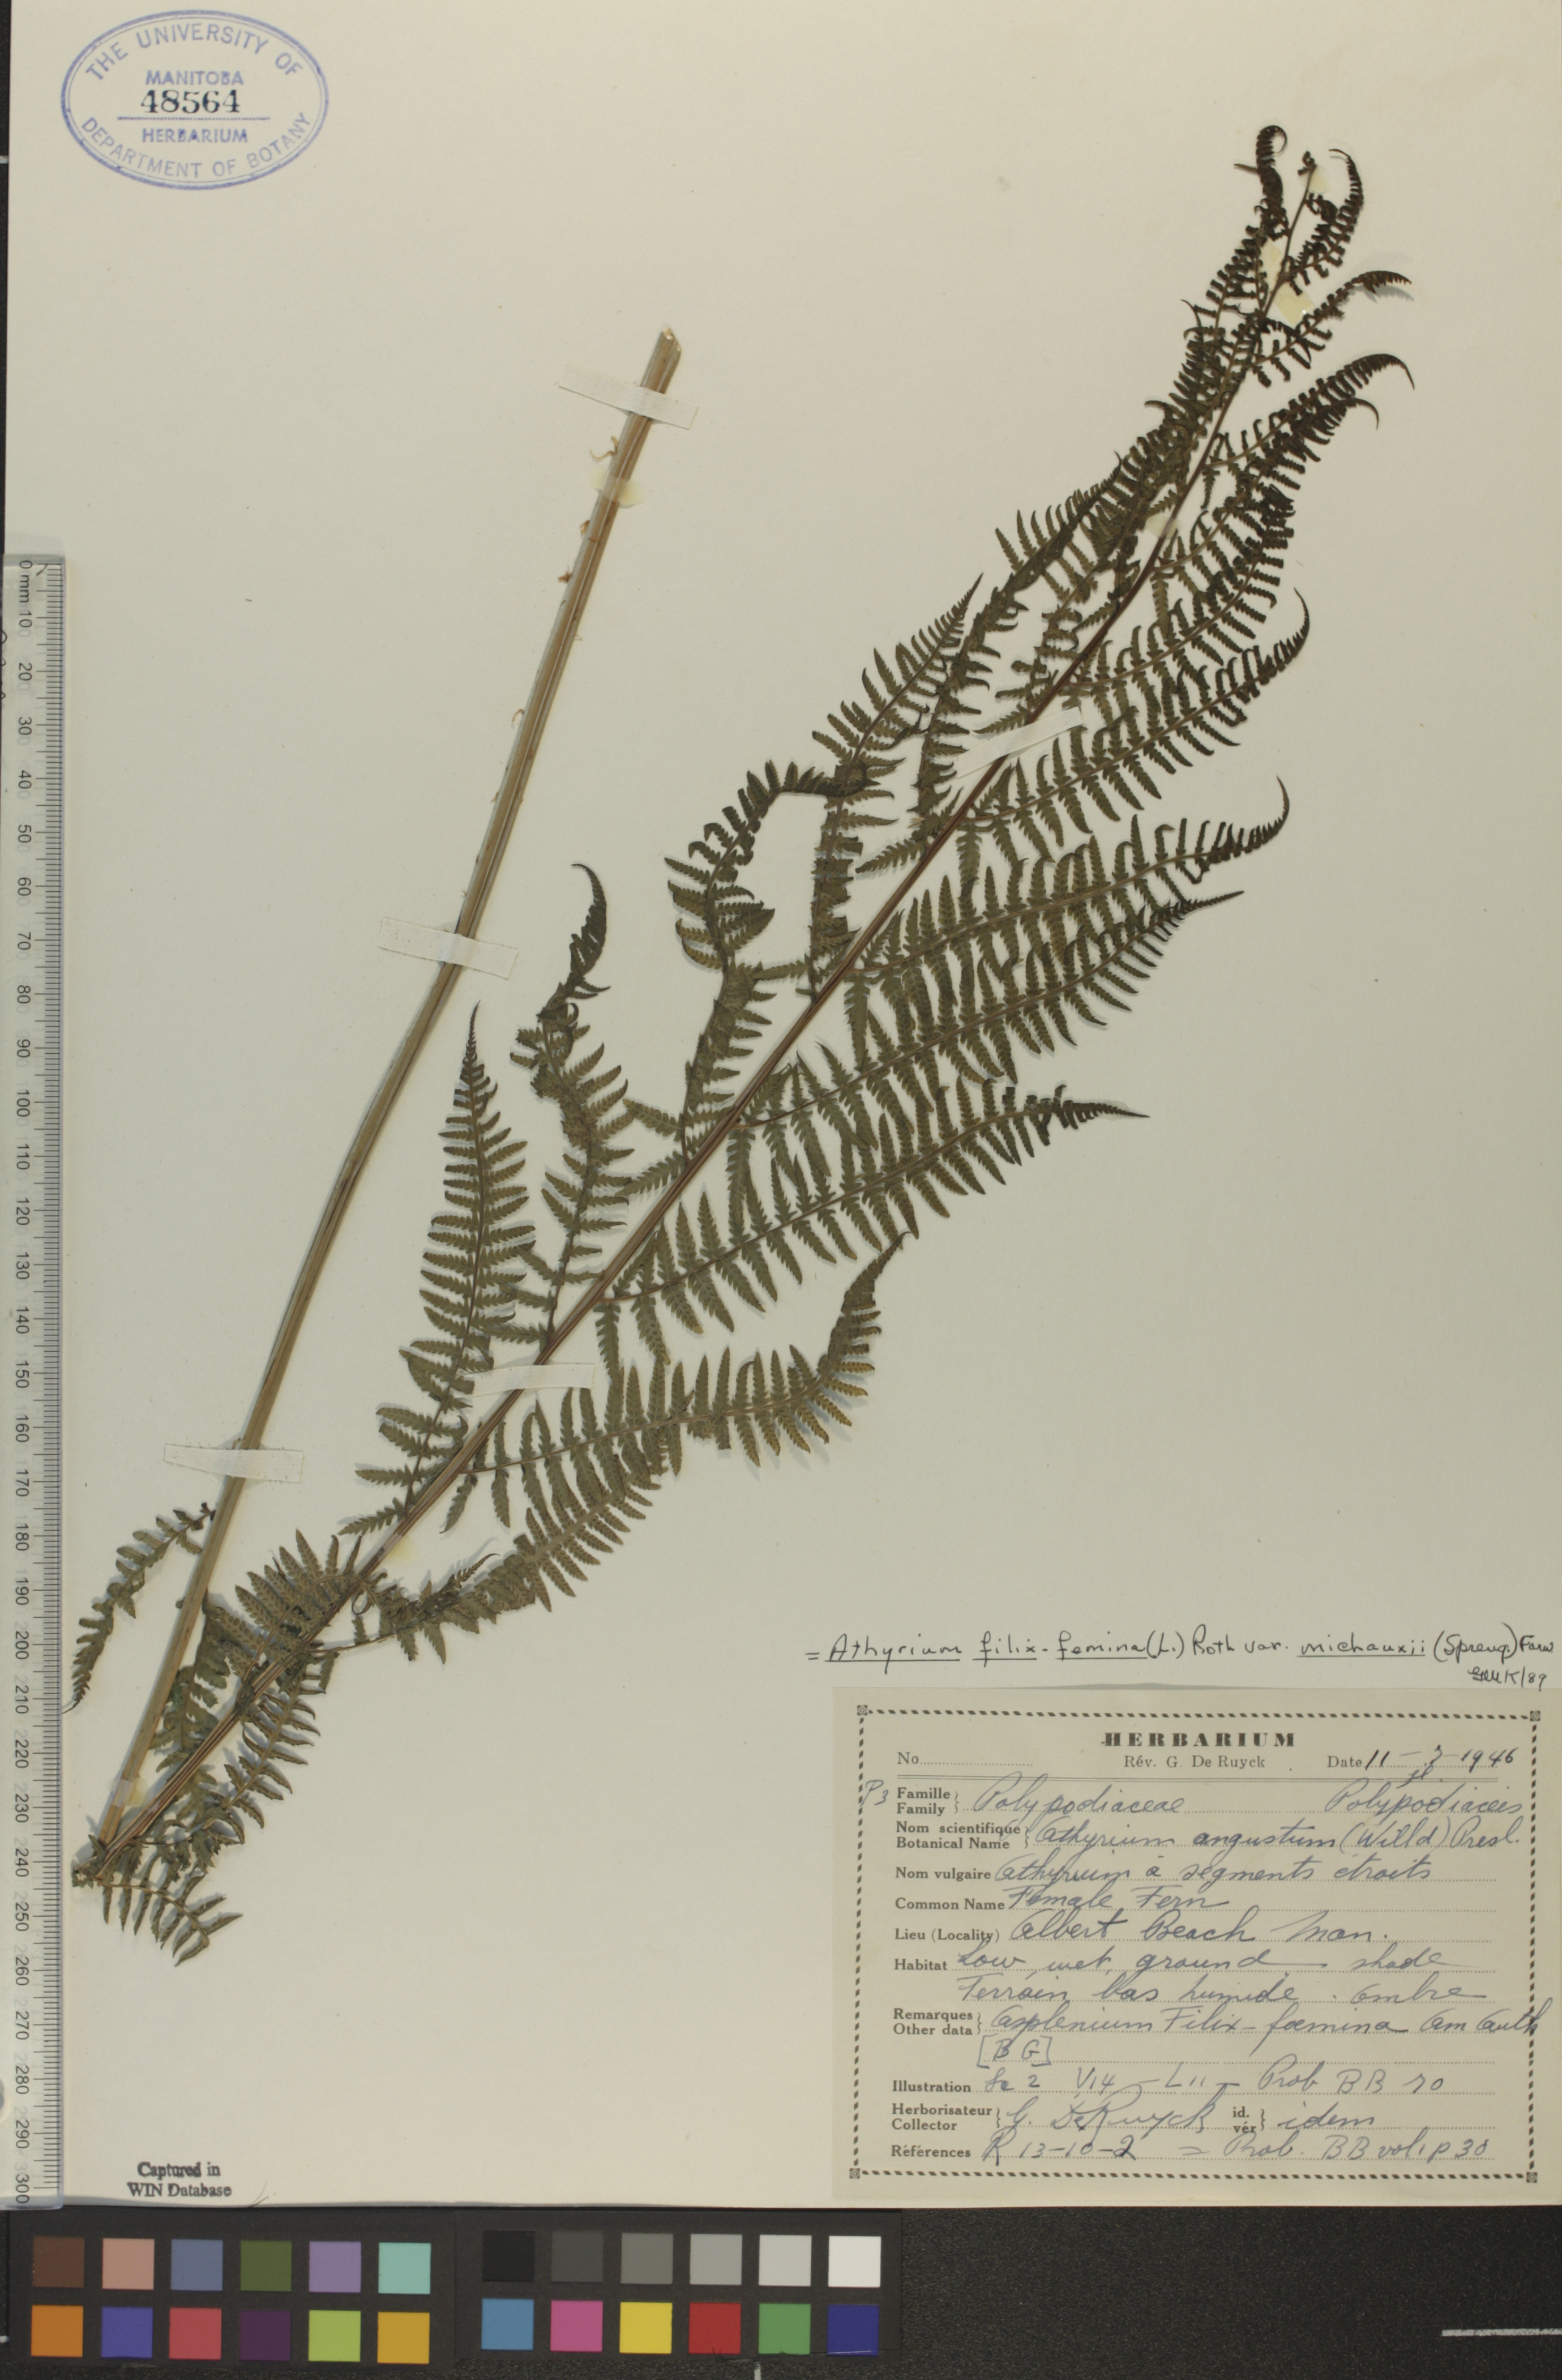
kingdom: Plantae
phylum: Tracheophyta
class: Polypodiopsida
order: Polypodiales
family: Athyriaceae
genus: Athyrium
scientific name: Athyrium angustum
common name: Northern lady fern
